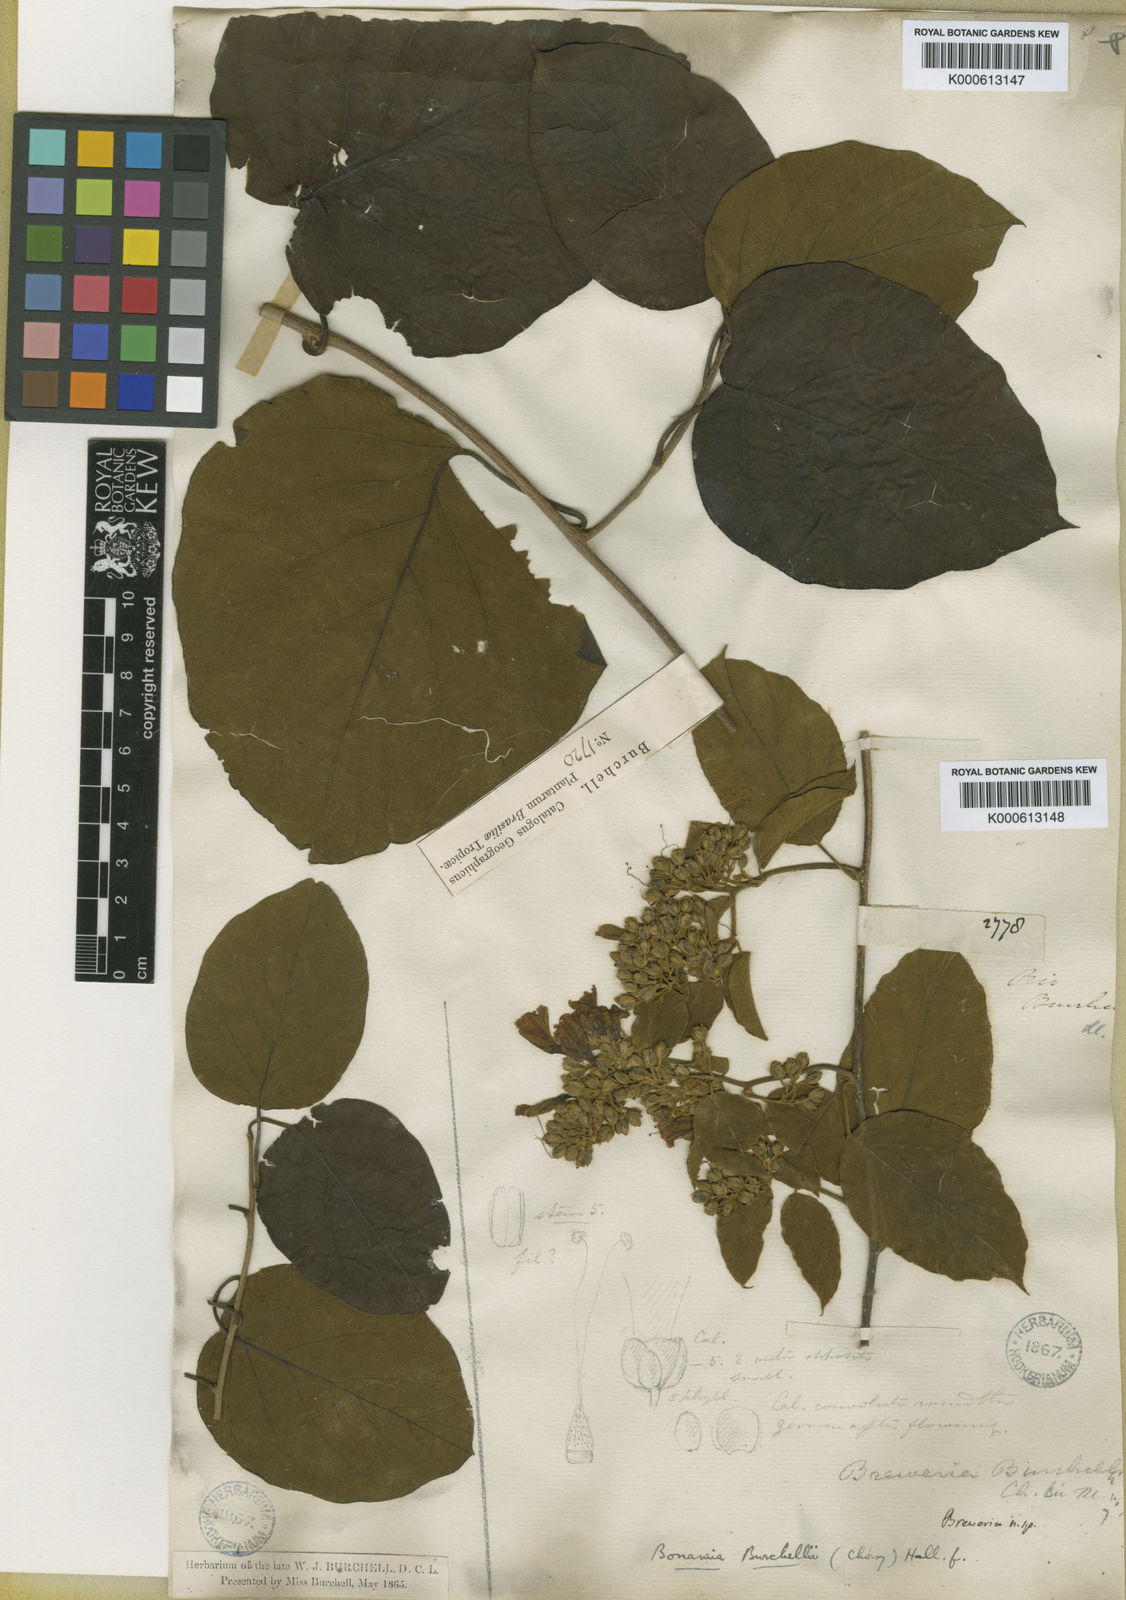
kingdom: Plantae
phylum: Tracheophyta
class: Magnoliopsida
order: Solanales
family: Convolvulaceae
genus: Bonamia
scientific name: Bonamia agrostopolis
